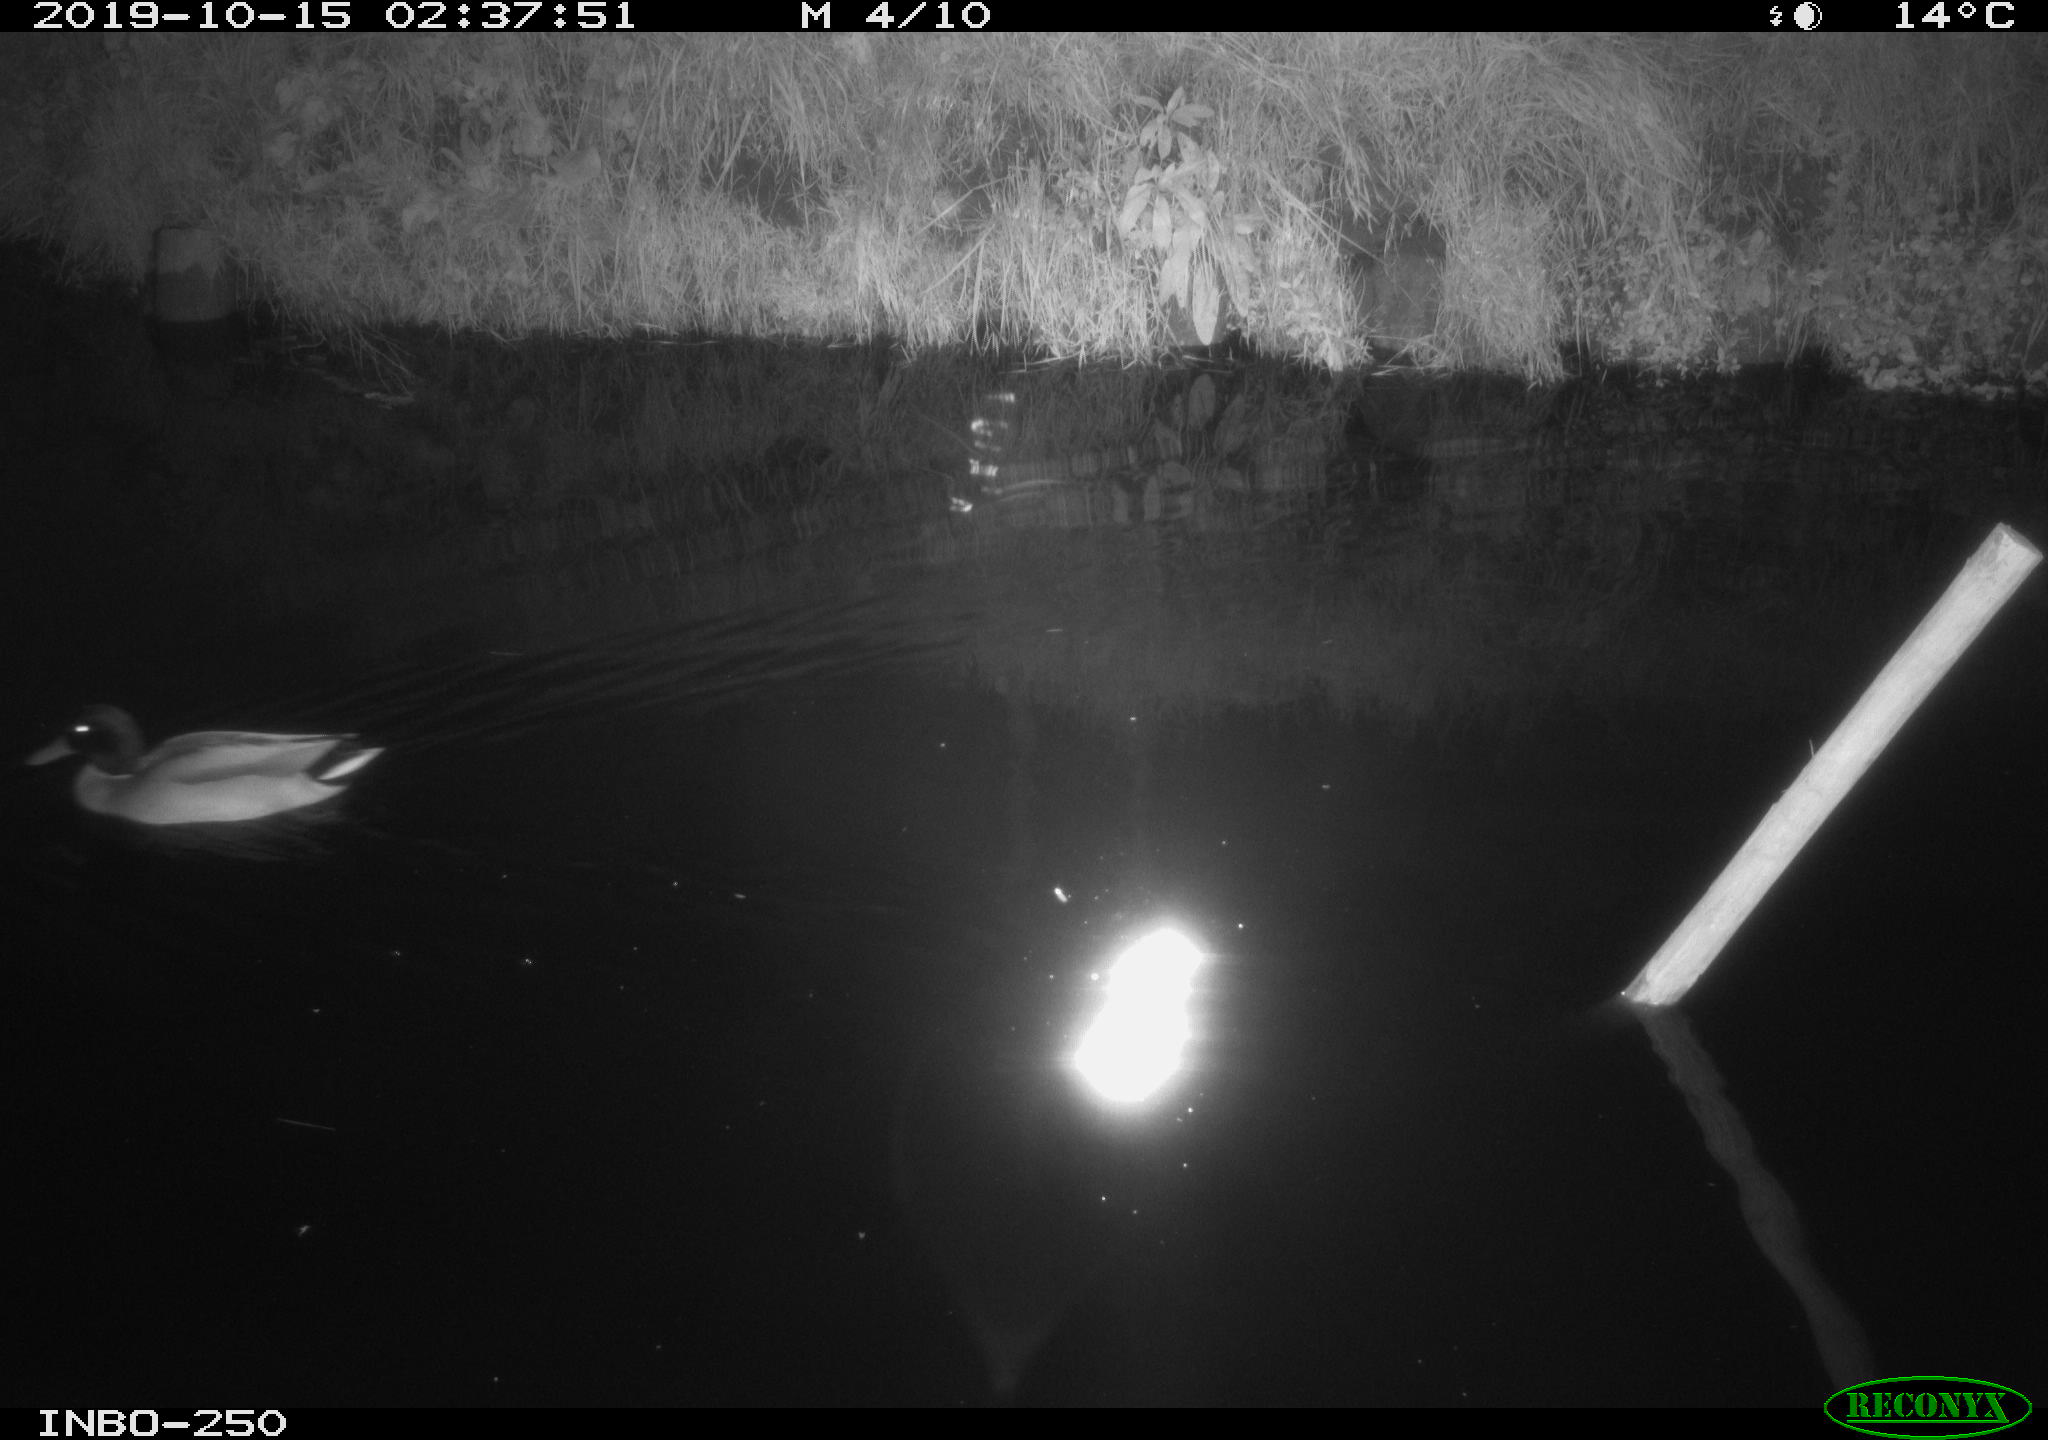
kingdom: Animalia
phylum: Chordata
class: Aves
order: Anseriformes
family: Anatidae
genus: Anas
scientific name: Anas platyrhynchos
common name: Mallard
